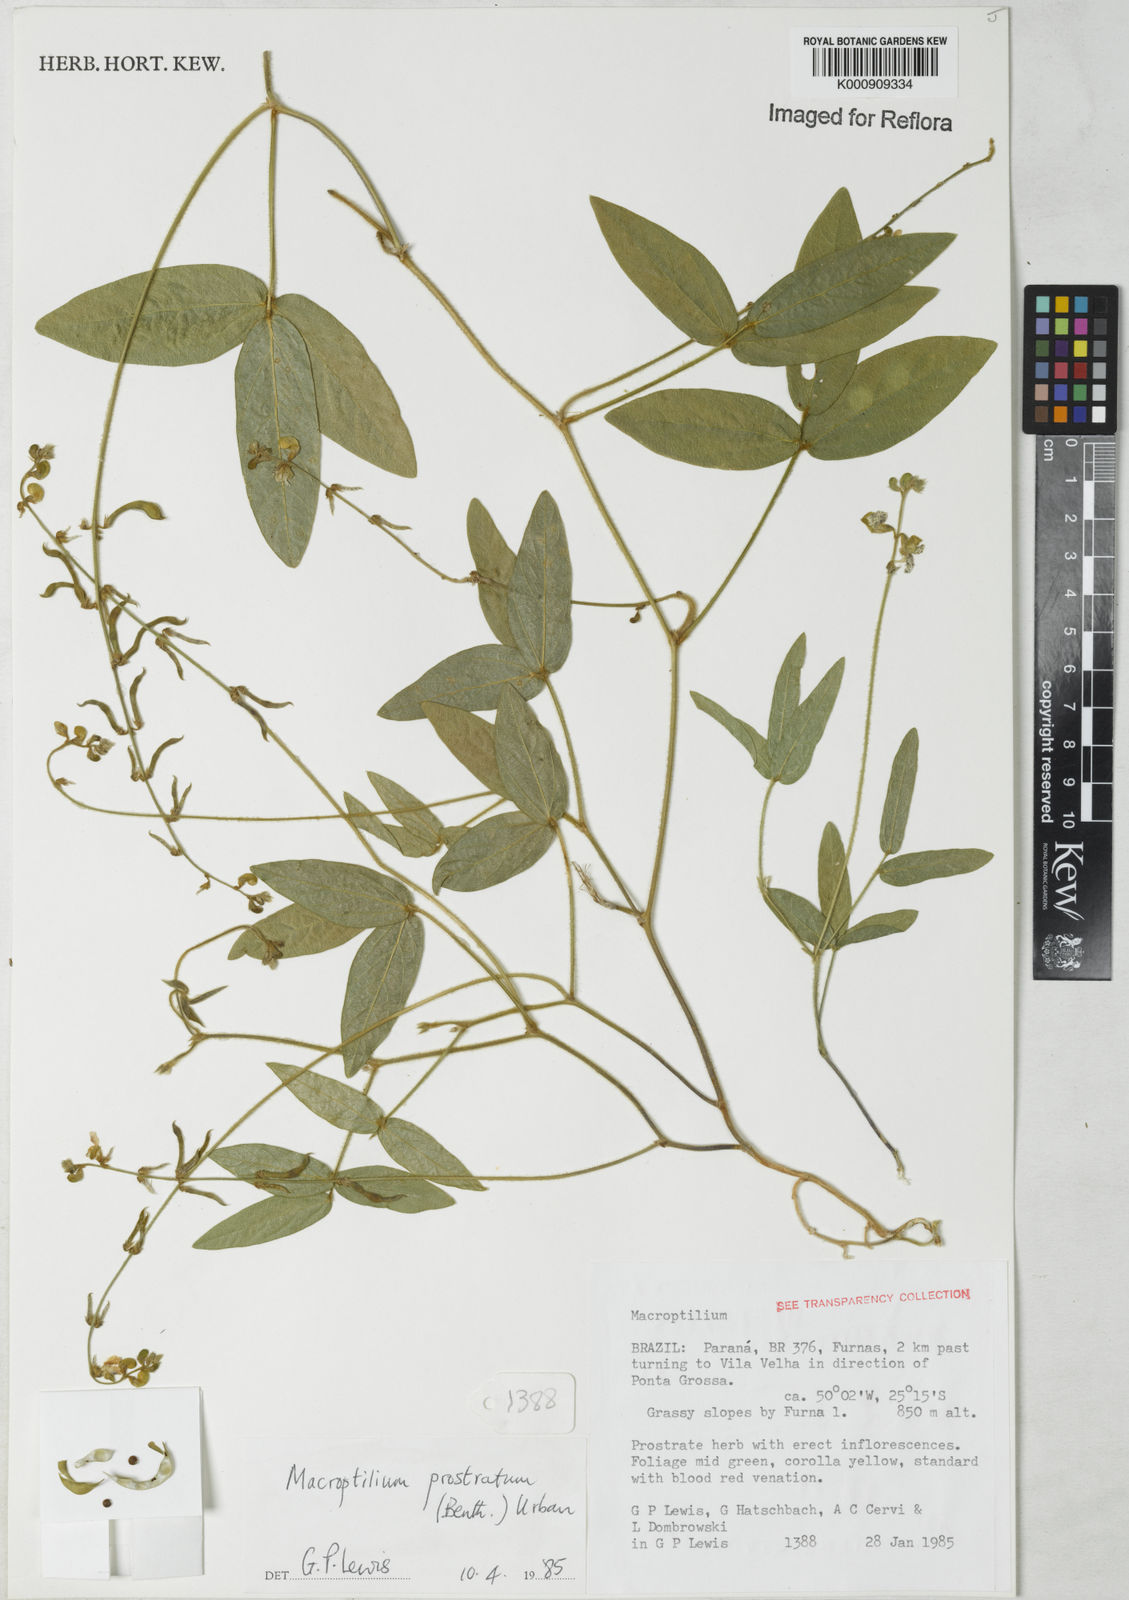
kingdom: Plantae
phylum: Tracheophyta
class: Magnoliopsida
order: Fabales
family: Fabaceae
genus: Macroptilium
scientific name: Macroptilium prostratum
